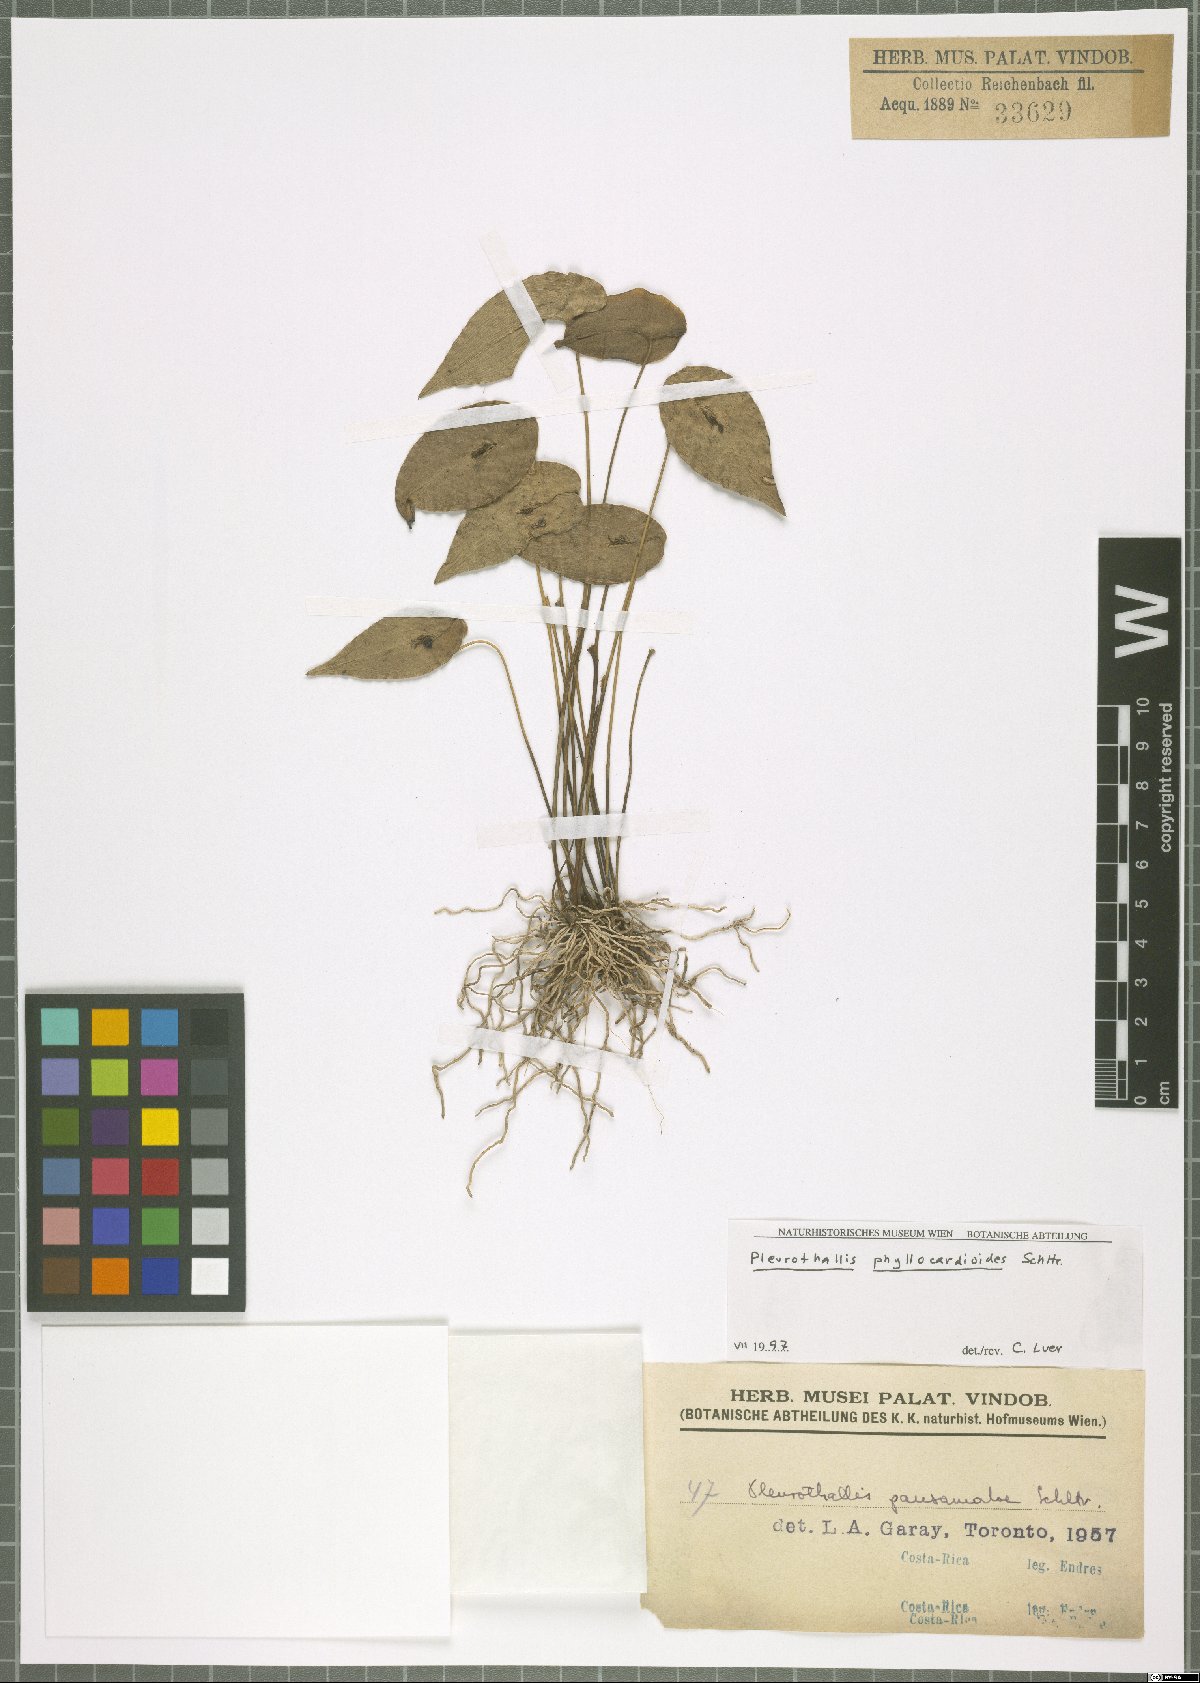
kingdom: Plantae
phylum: Tracheophyta
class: Liliopsida
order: Asparagales
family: Orchidaceae
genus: Pleurothallis
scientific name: Pleurothallis phyllocardioides
